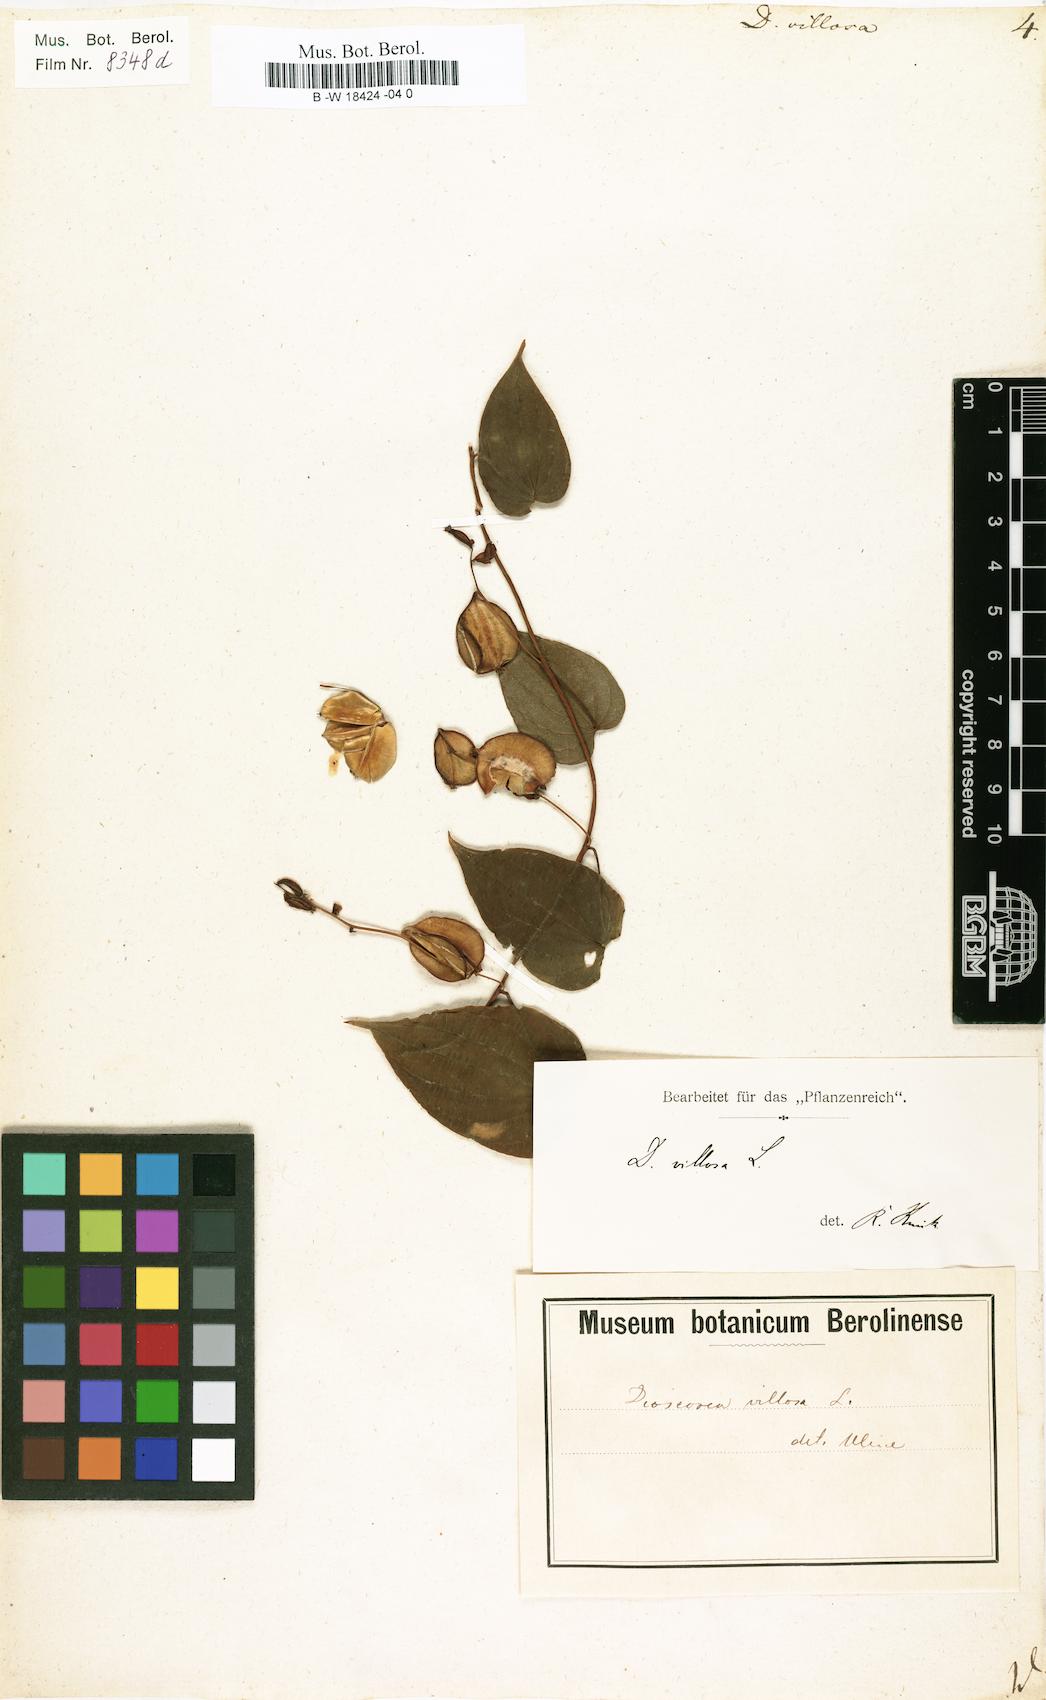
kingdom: Plantae
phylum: Tracheophyta
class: Liliopsida
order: Dioscoreales
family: Dioscoreaceae
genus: Dioscorea
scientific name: Dioscorea villosa
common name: Wild yam
